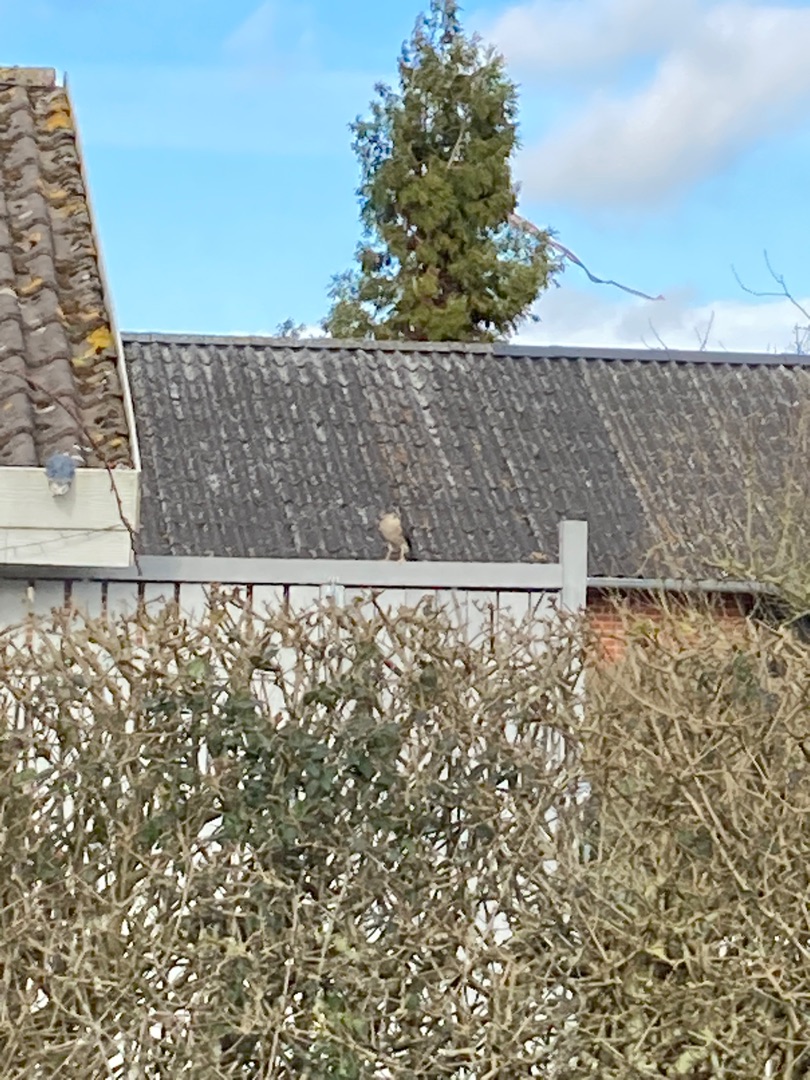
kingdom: Animalia
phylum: Chordata
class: Aves
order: Accipitriformes
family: Accipitridae
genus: Accipiter
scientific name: Accipiter nisus
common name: Spurvehøg
